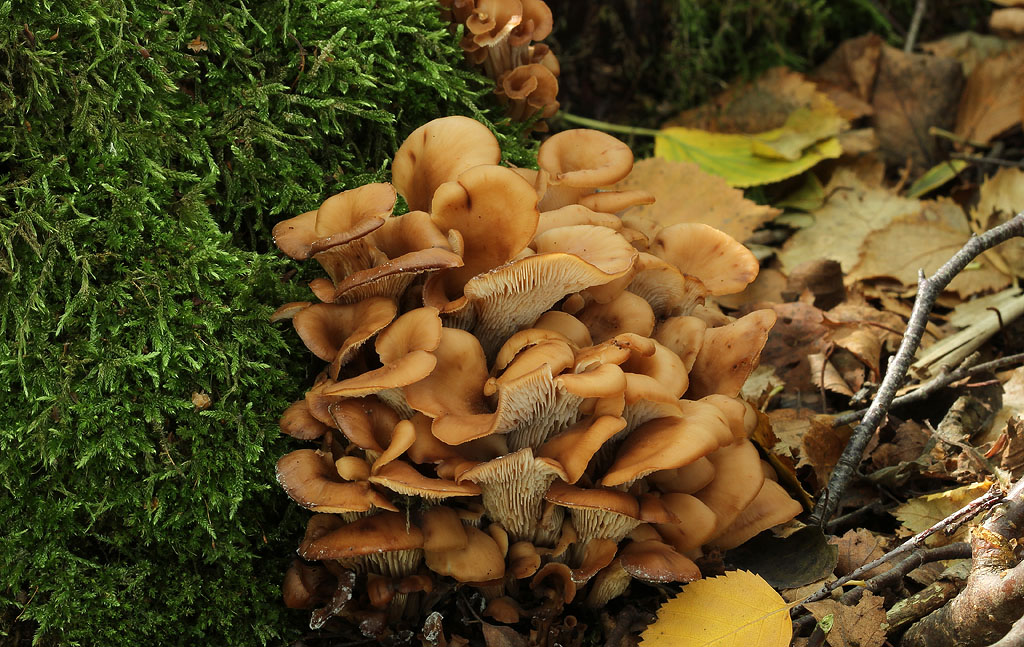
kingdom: Fungi
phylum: Basidiomycota
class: Agaricomycetes
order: Russulales
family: Auriscalpiaceae
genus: Lentinellus
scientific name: Lentinellus cochleatus
